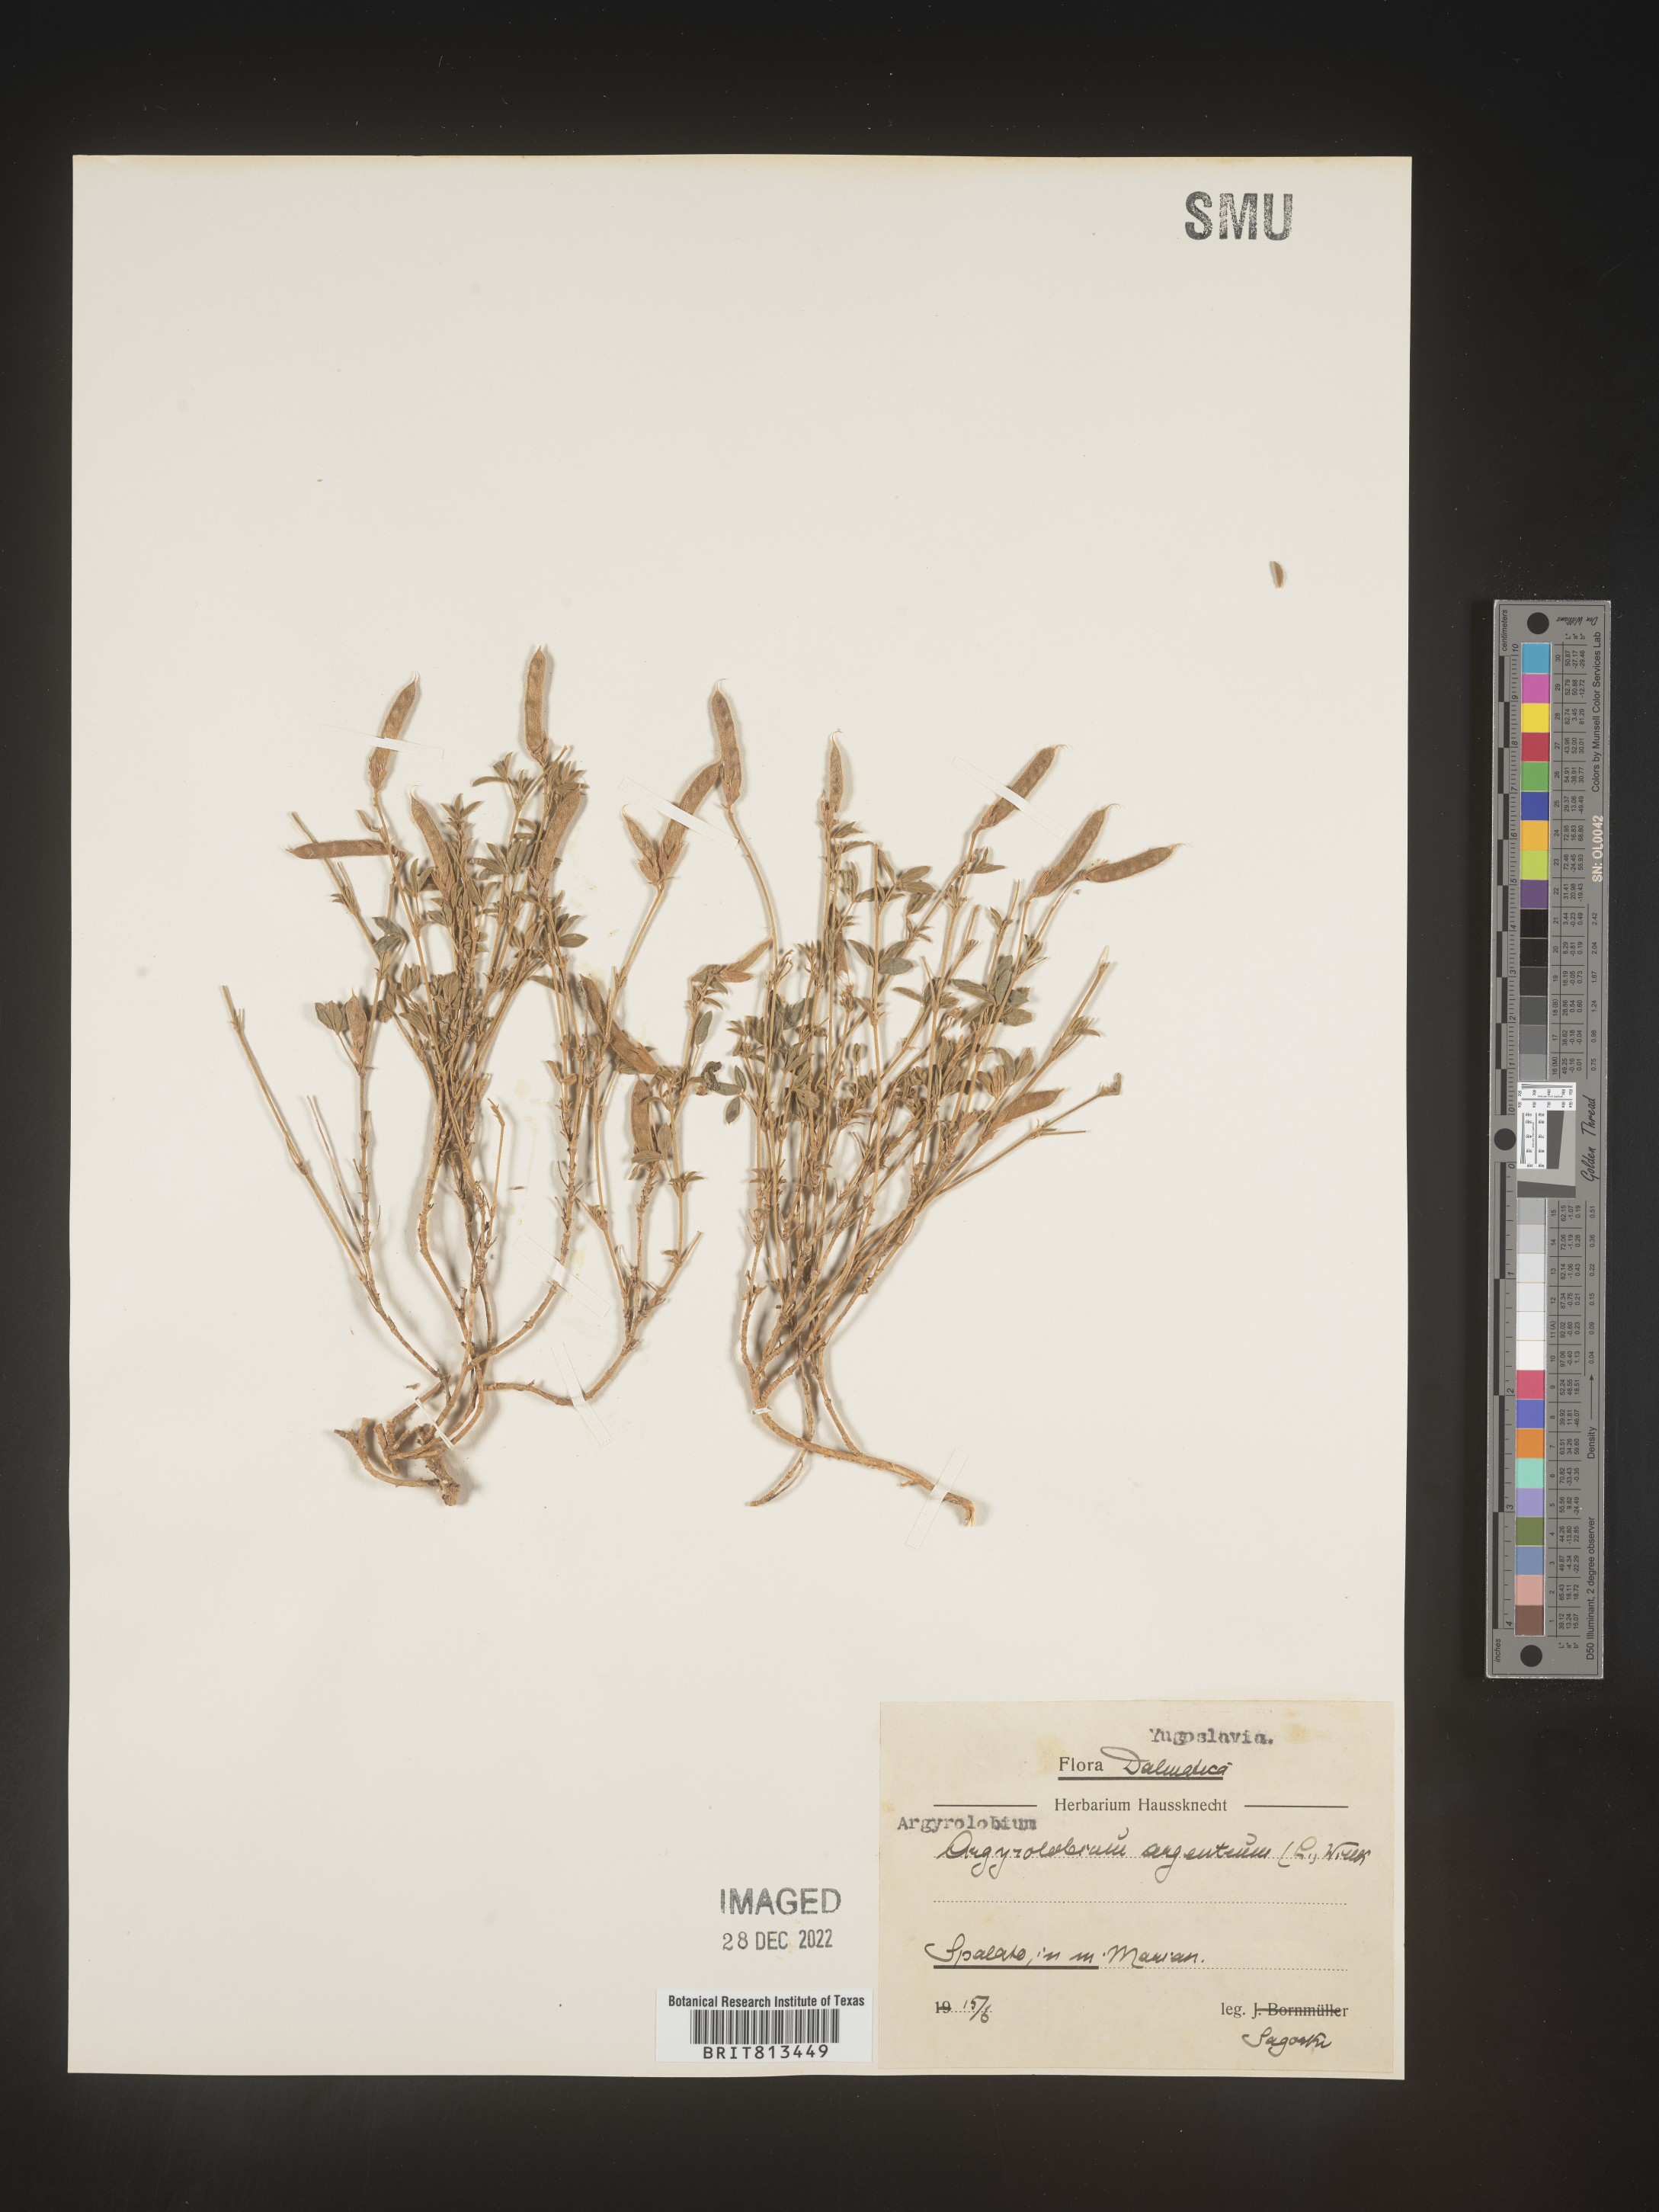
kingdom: Plantae
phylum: Tracheophyta
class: Magnoliopsida
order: Fabales
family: Fabaceae
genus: Argyrolobium
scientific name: Argyrolobium
